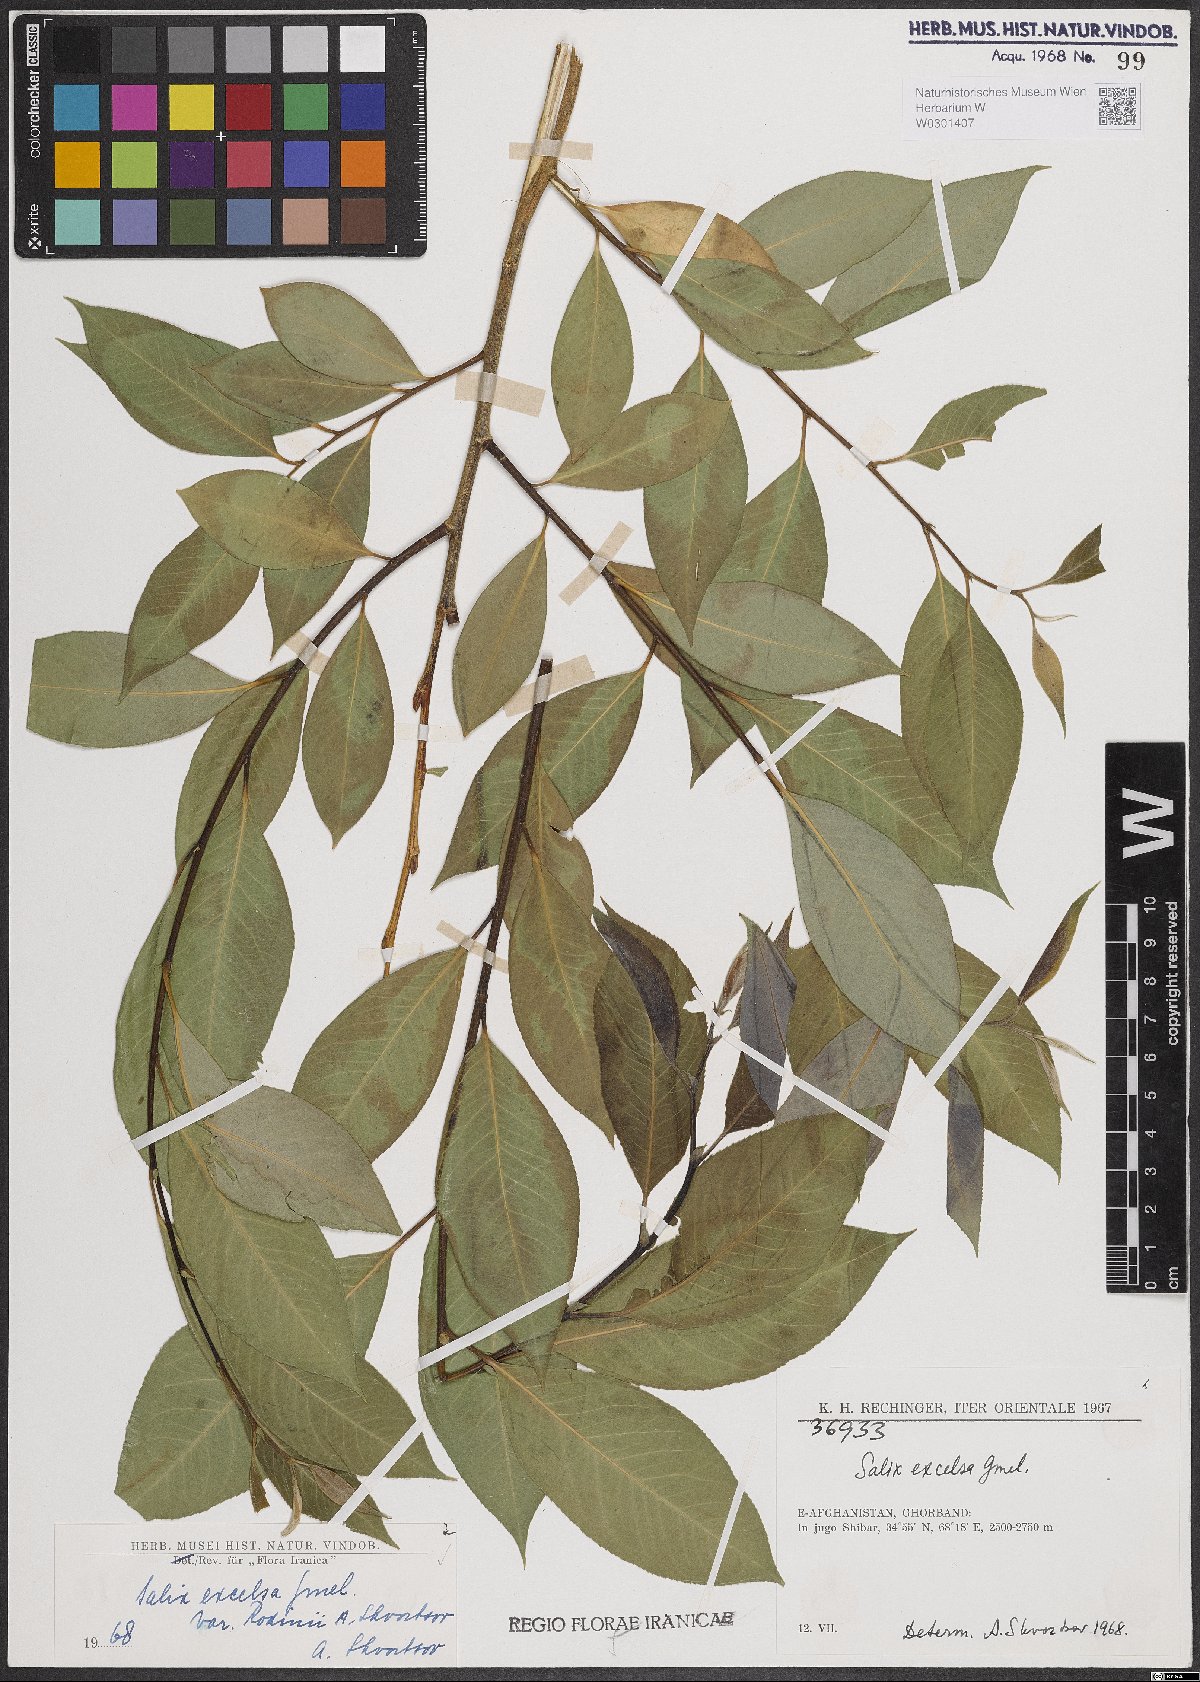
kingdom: Plantae
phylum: Tracheophyta
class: Magnoliopsida
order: Malpighiales
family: Salicaceae
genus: Salix
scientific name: Salix excelsa
